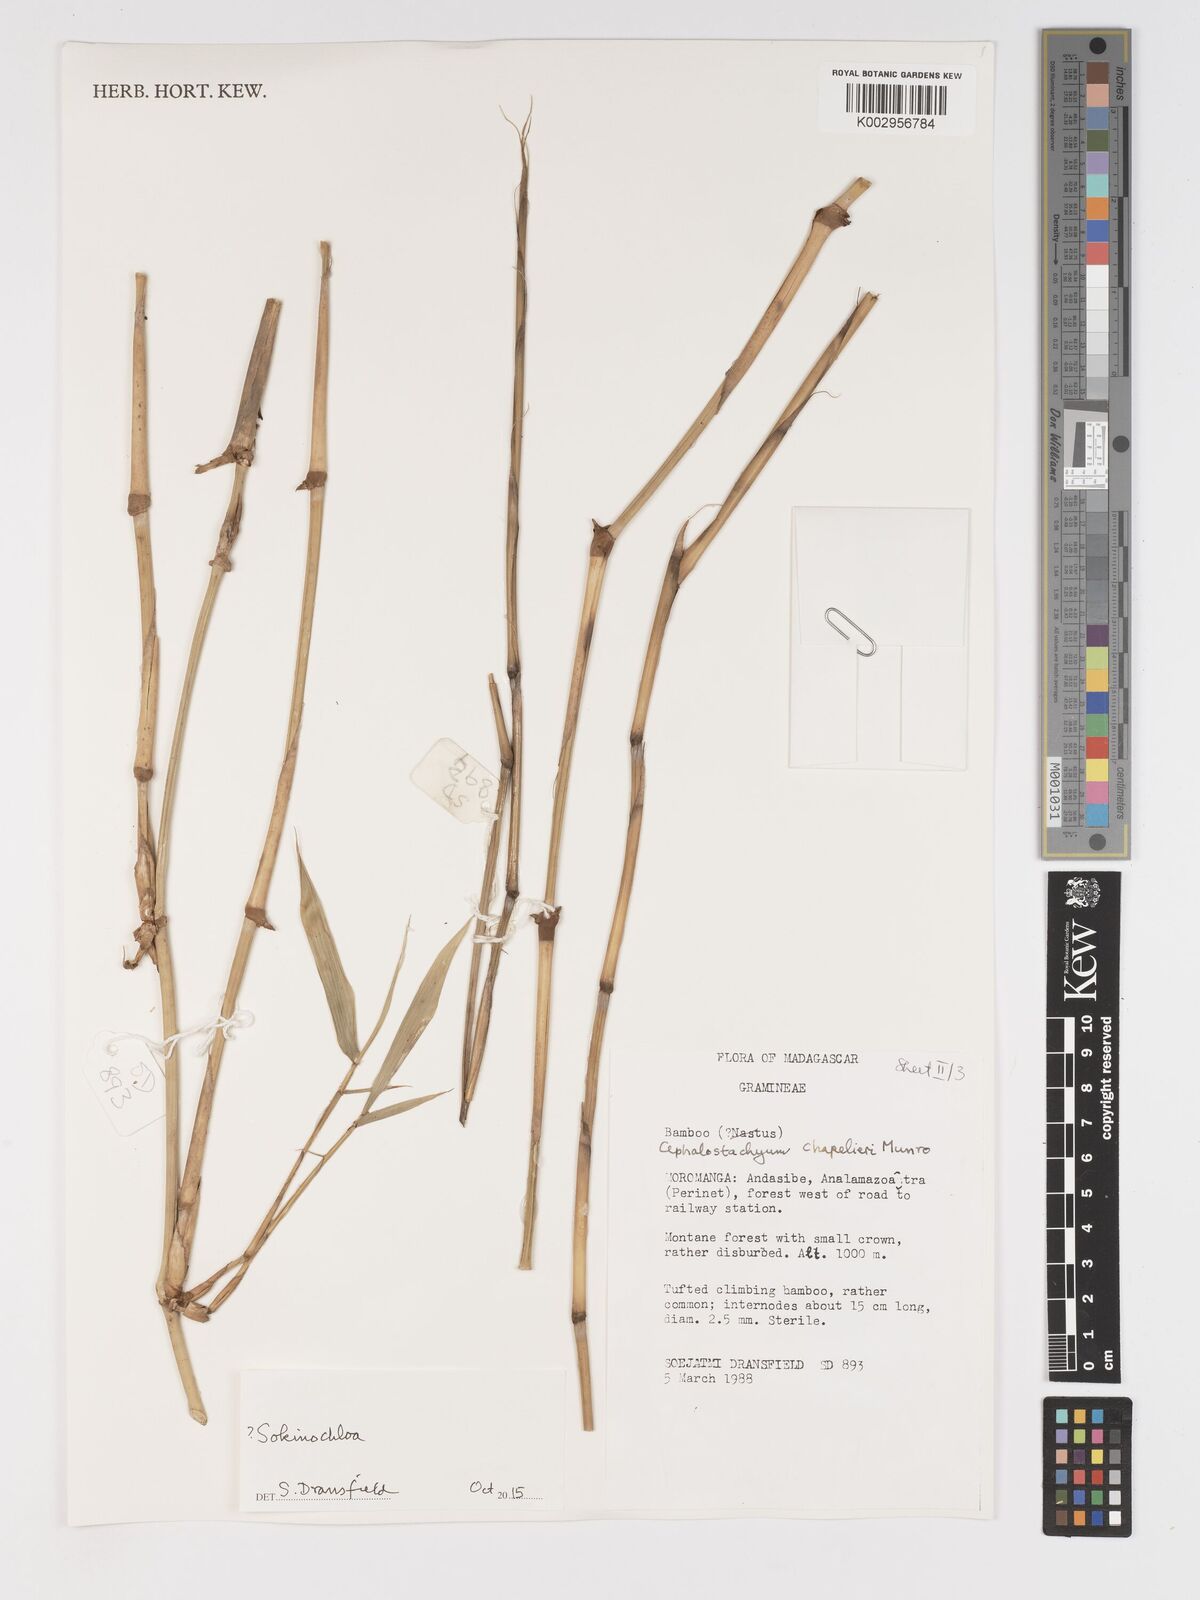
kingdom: Plantae
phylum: Tracheophyta
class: Liliopsida
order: Poales
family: Poaceae
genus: Sokinochloa
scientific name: Sokinochloa
